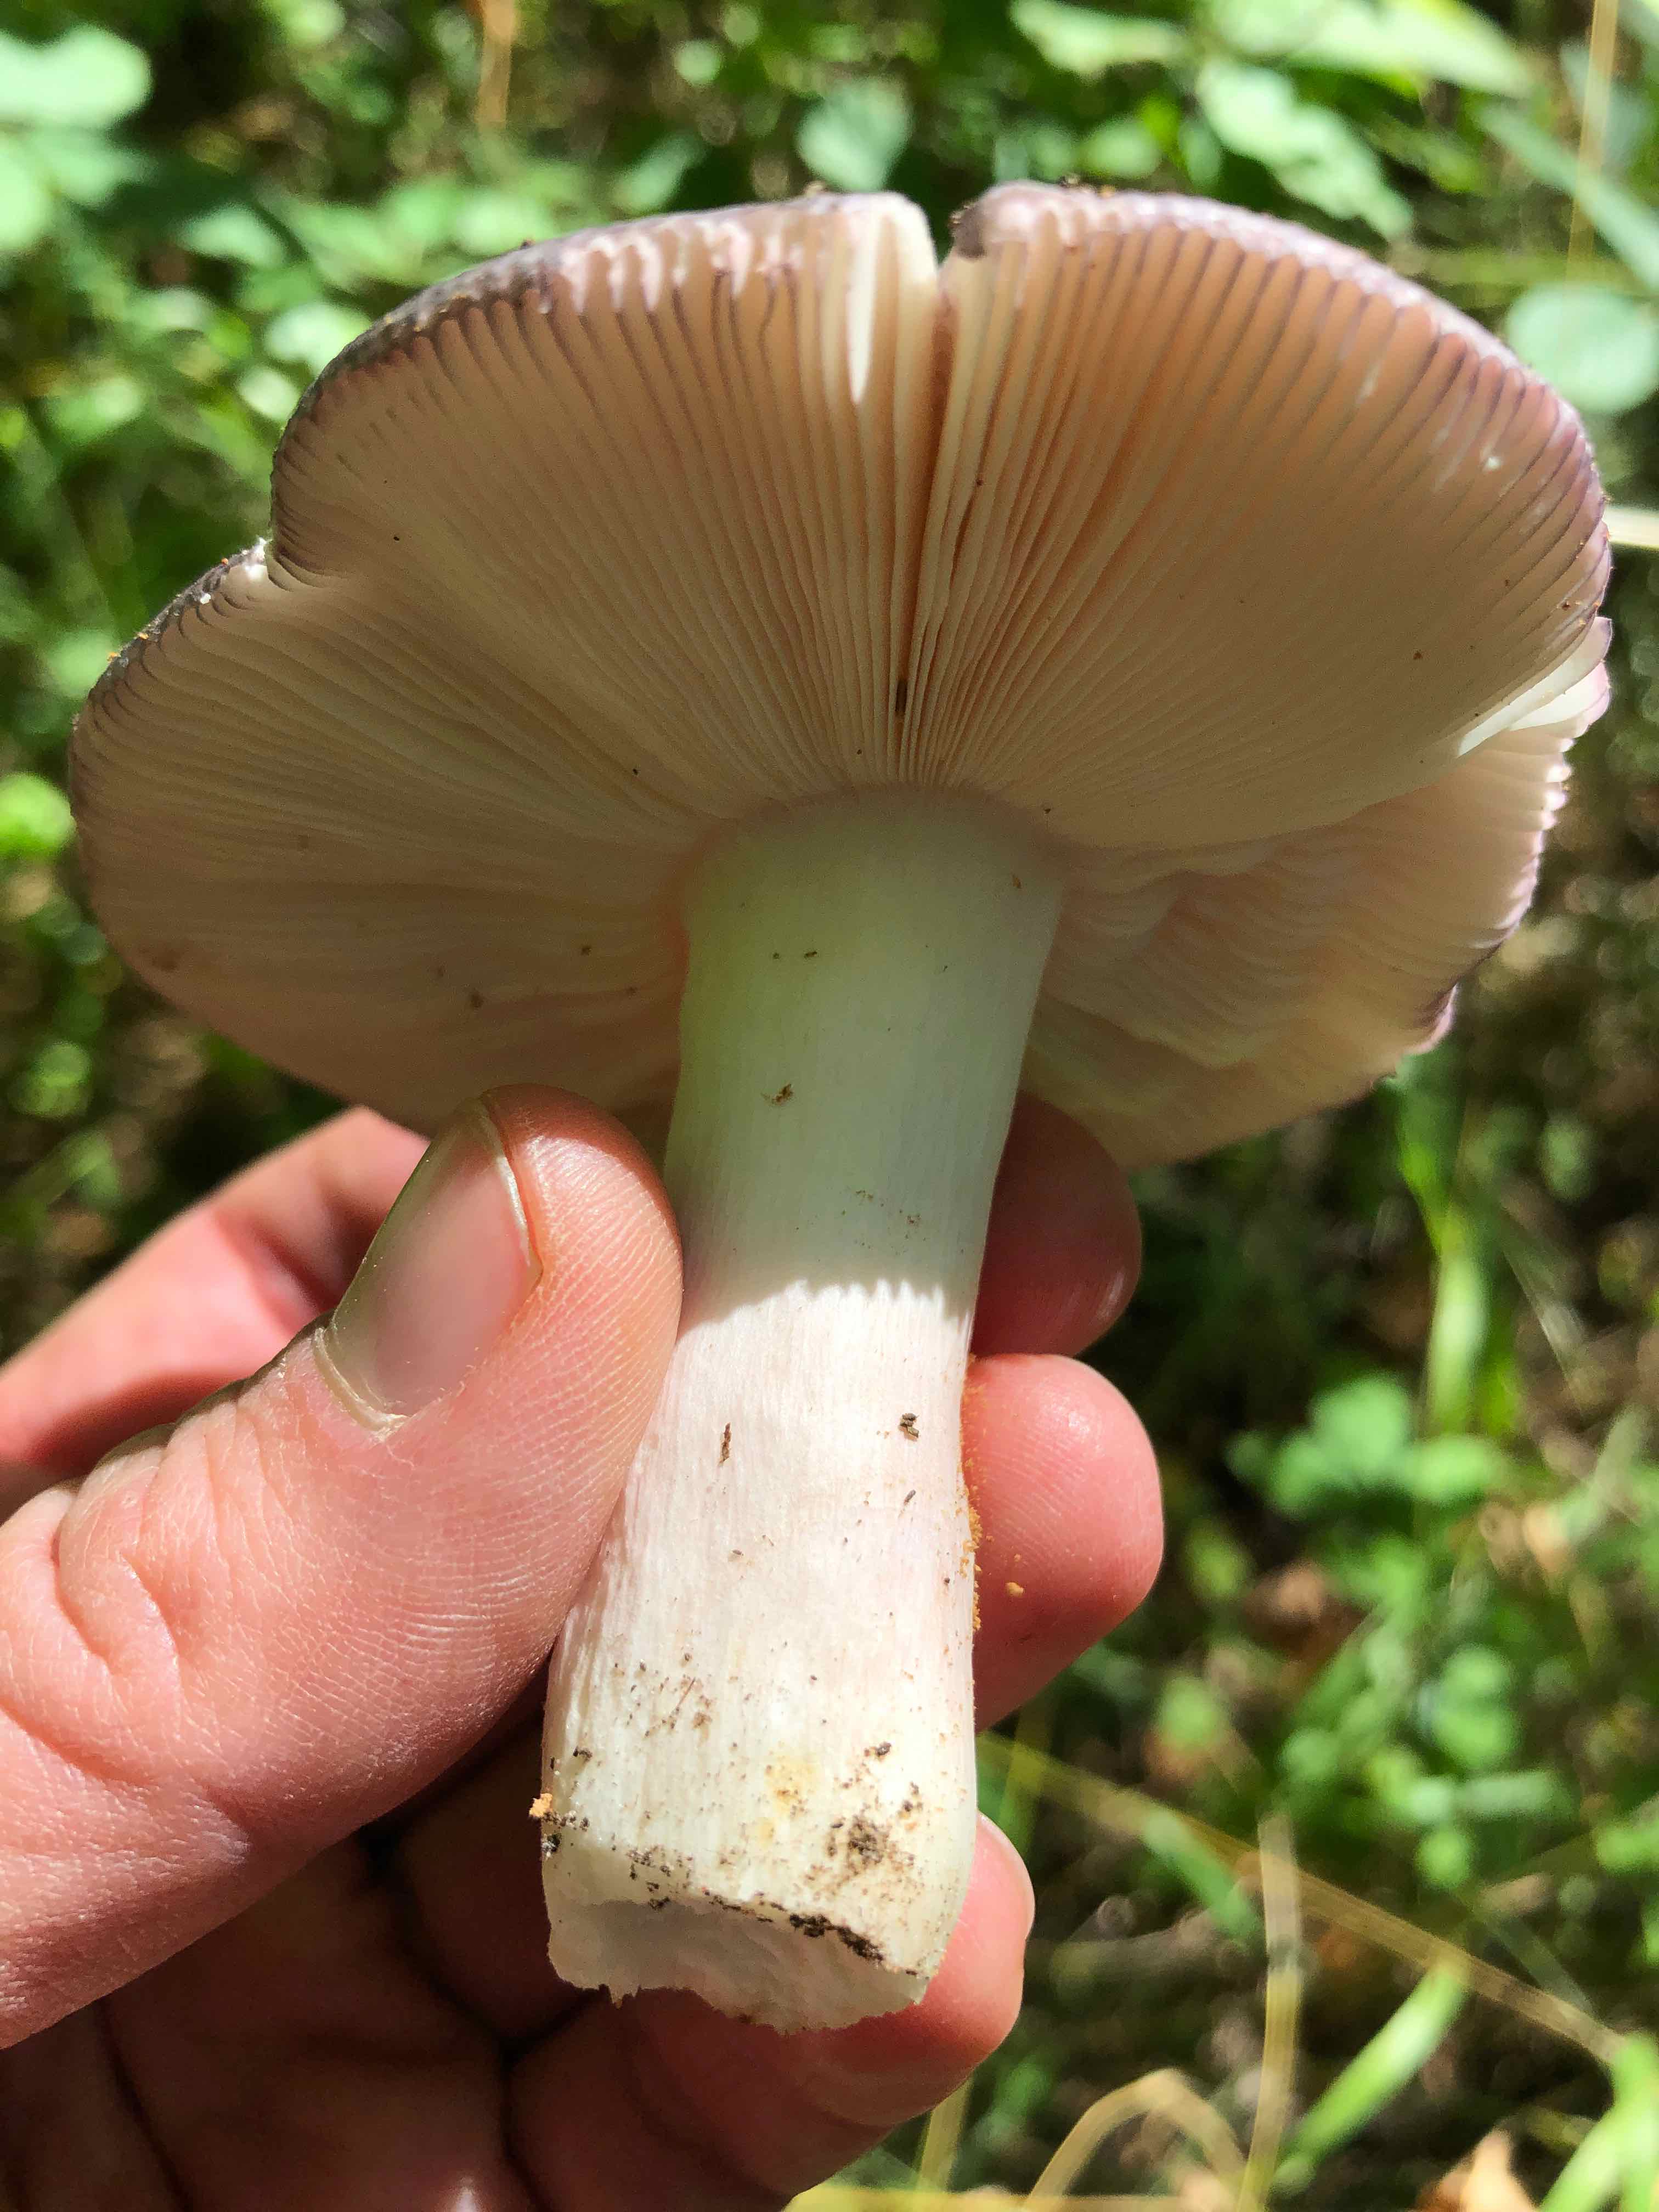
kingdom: Fungi
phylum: Basidiomycota
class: Agaricomycetes
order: Russulales
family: Russulaceae
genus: Russula
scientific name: Russula
